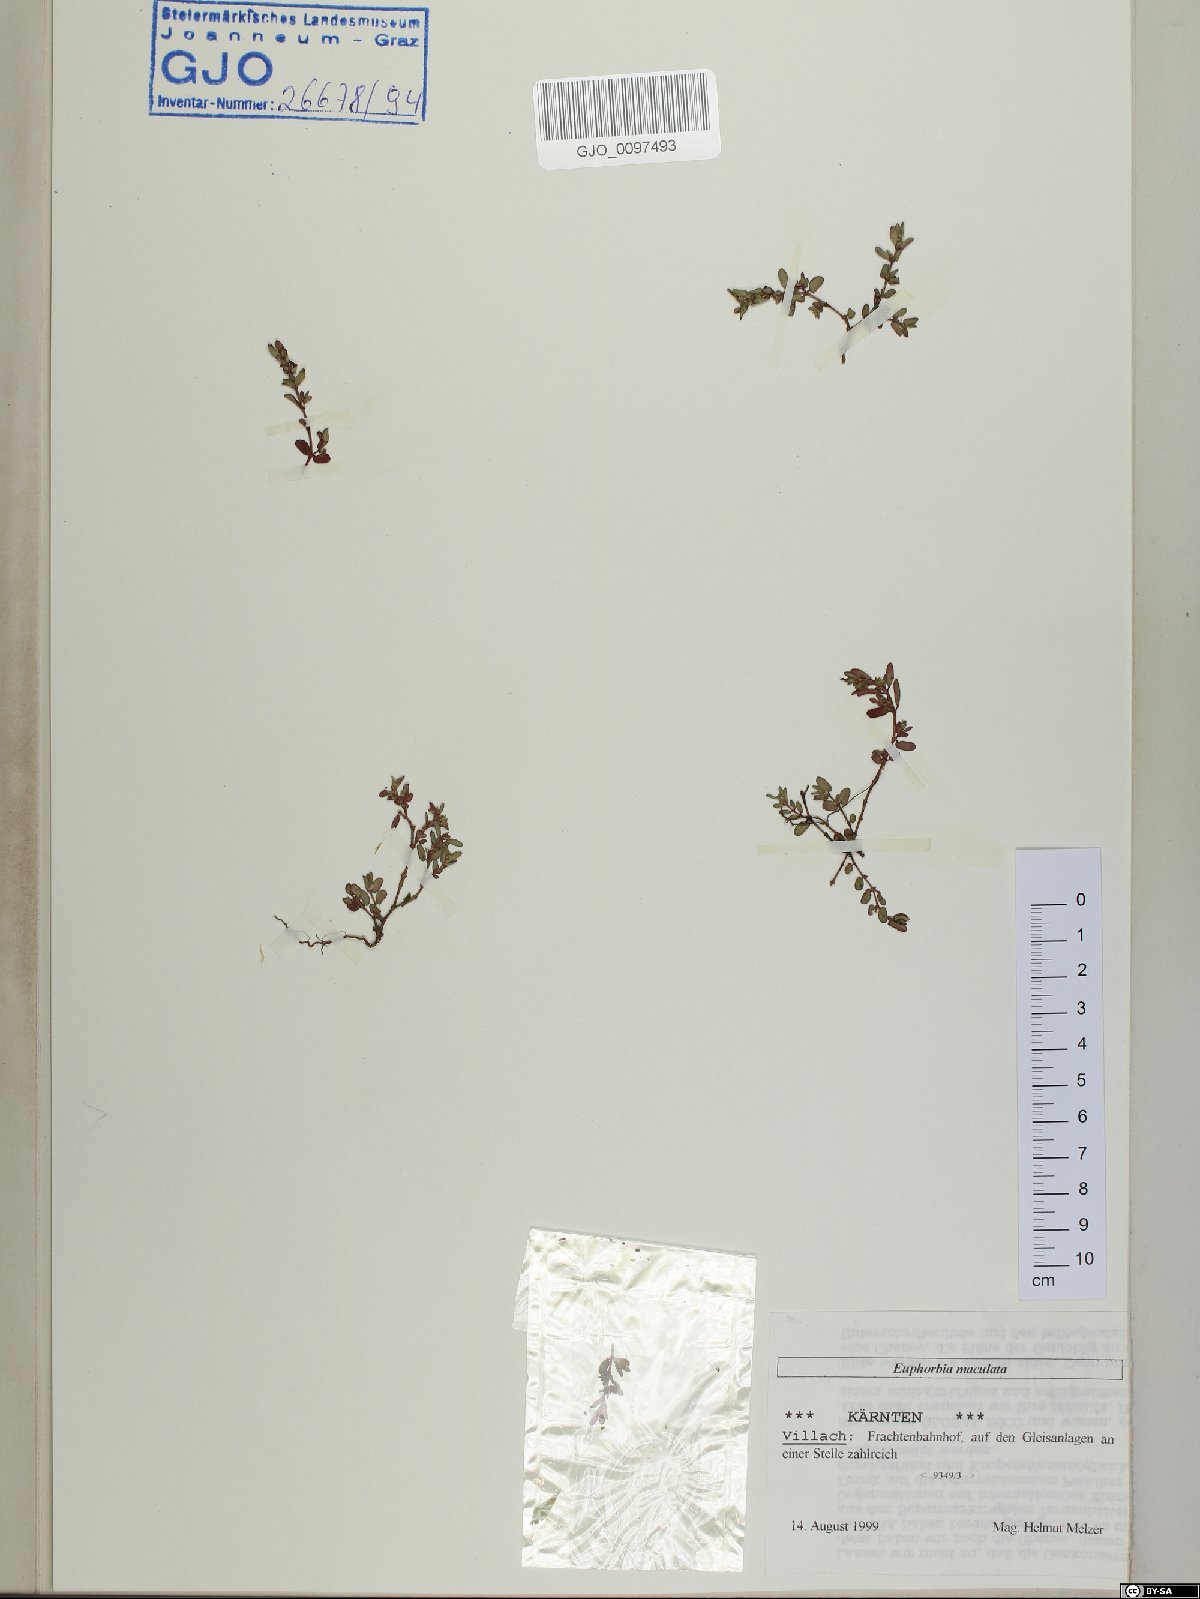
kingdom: Plantae
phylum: Tracheophyta
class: Magnoliopsida
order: Malpighiales
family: Euphorbiaceae
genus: Euphorbia
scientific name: Euphorbia maculata
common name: Spotted spurge
